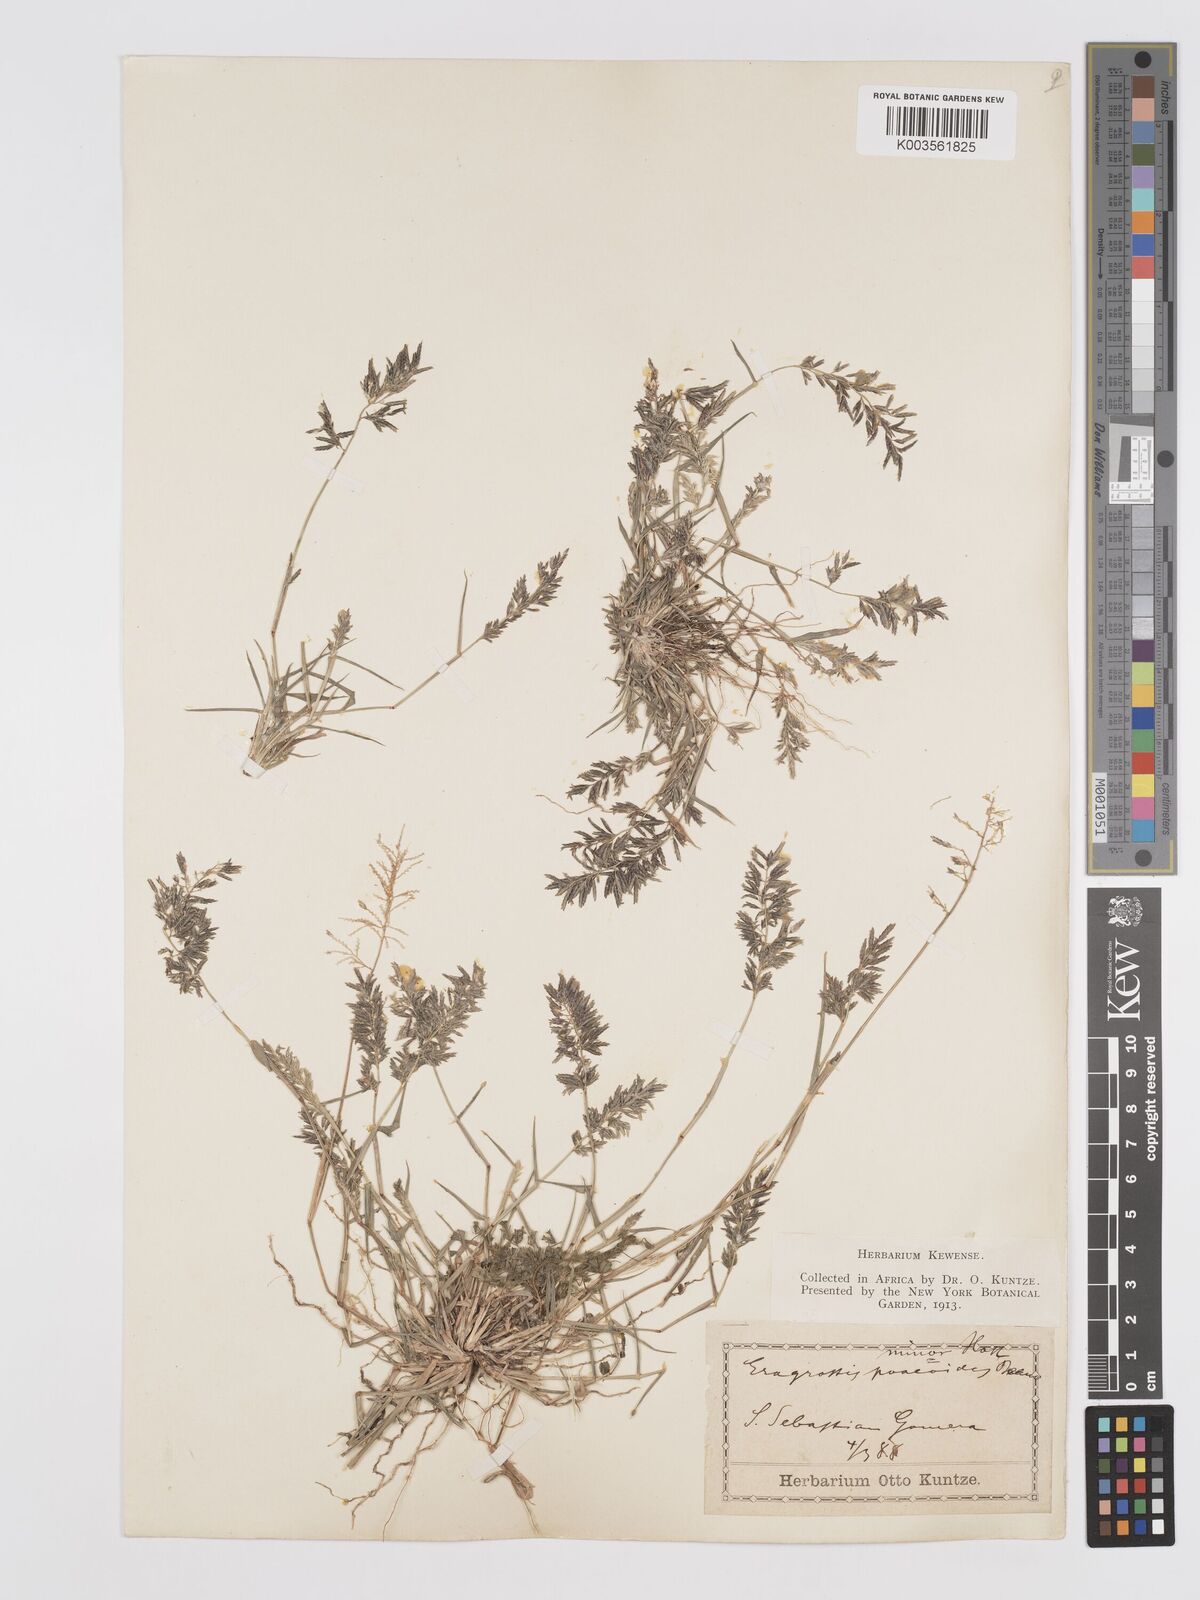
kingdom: Plantae
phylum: Tracheophyta
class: Liliopsida
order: Poales
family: Poaceae
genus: Eragrostis
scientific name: Eragrostis barrelieri
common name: Mediterranean lovegrass
